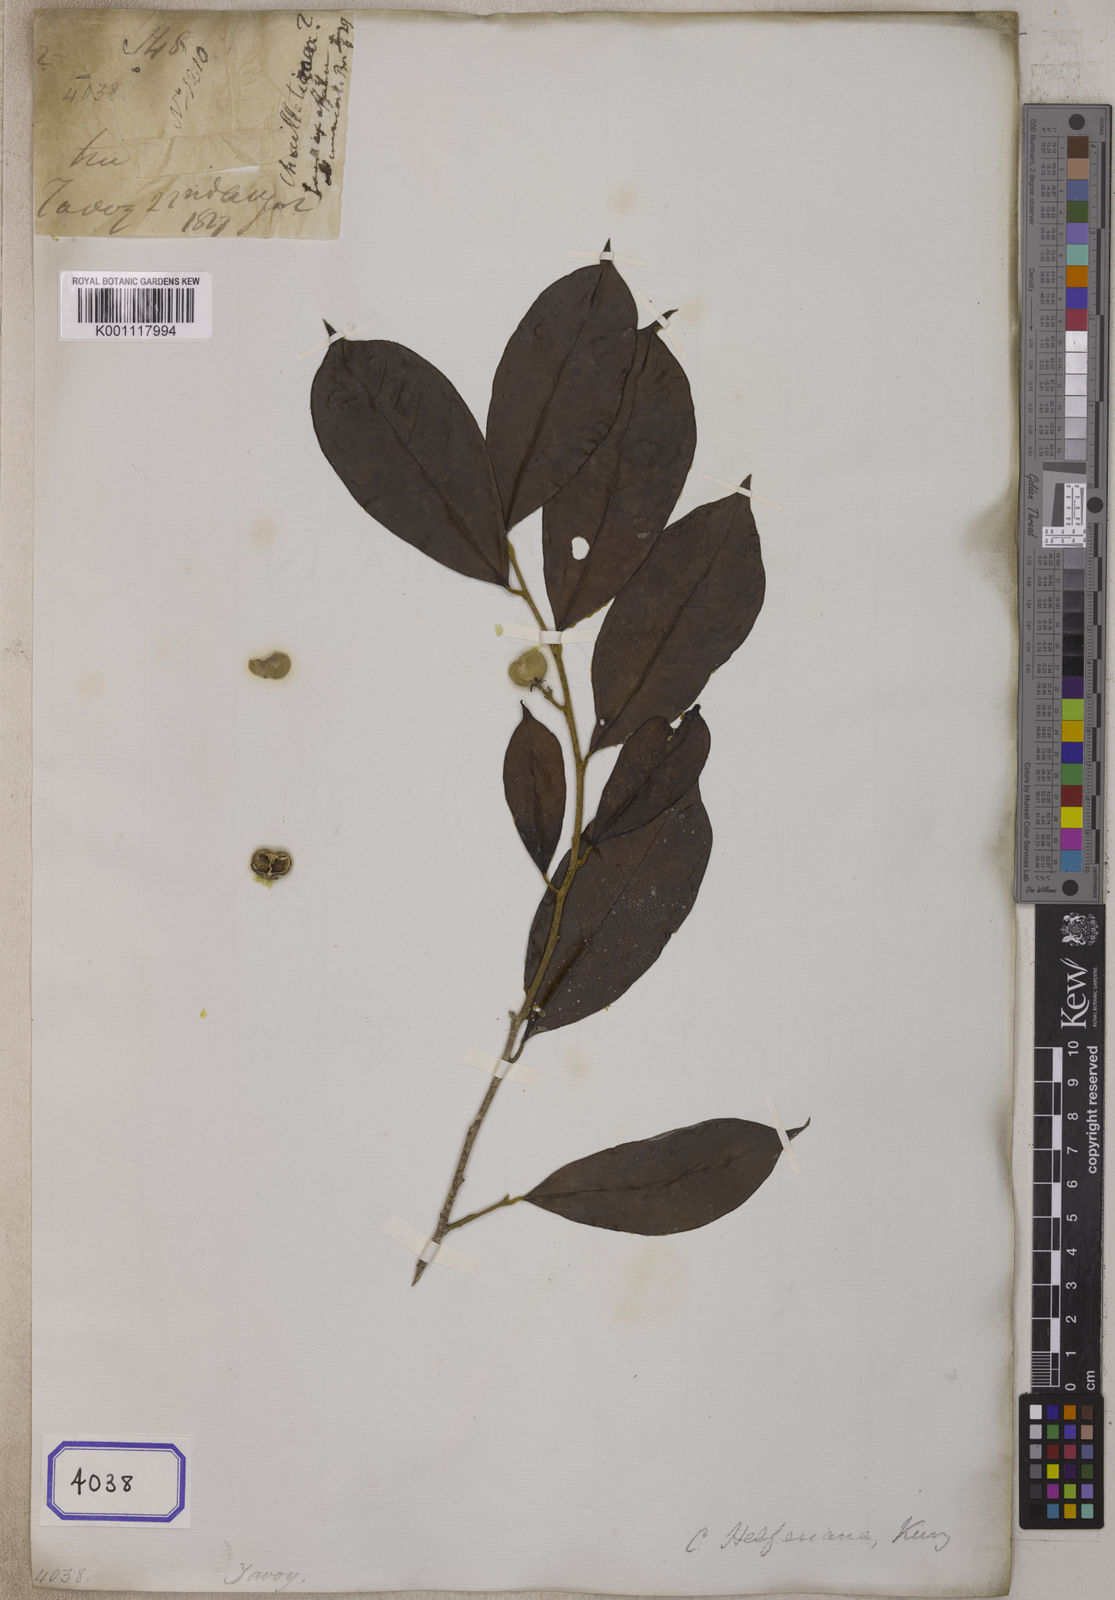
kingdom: Plantae
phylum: Tracheophyta
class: Magnoliopsida
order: Malpighiales
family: Dichapetalaceae
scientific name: Dichapetalaceae
